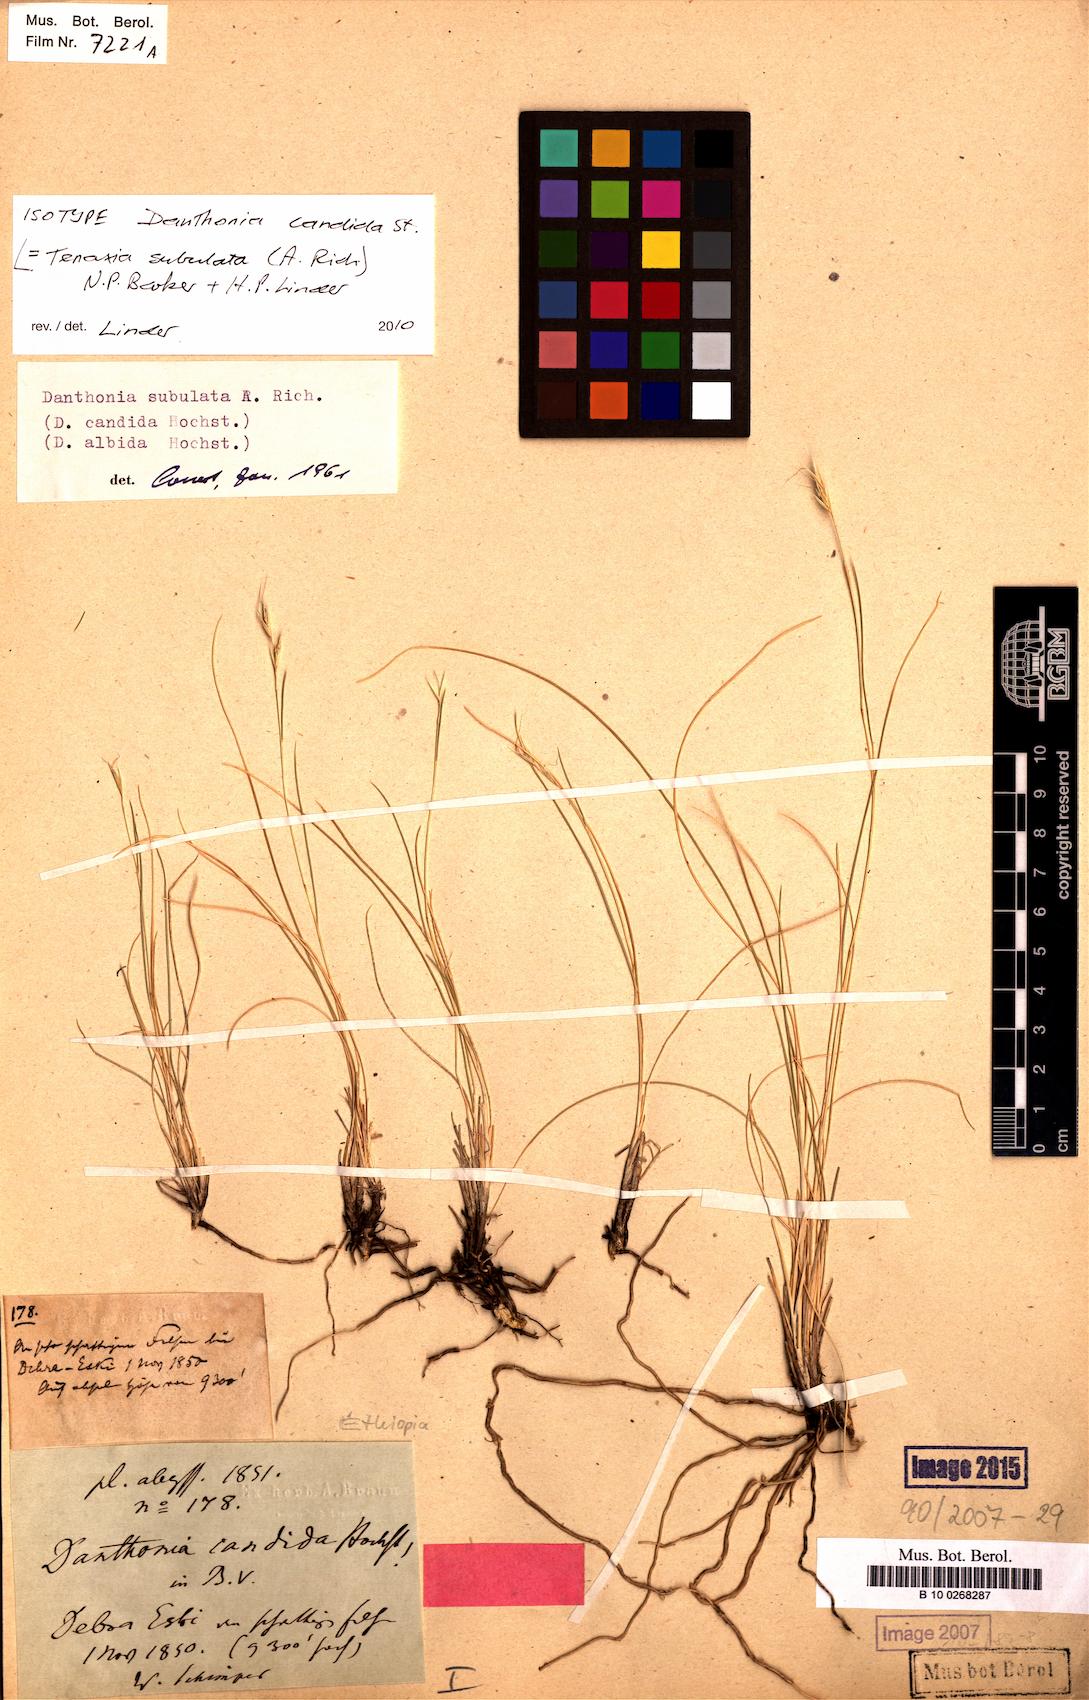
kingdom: Plantae
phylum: Tracheophyta
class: Liliopsida
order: Poales
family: Poaceae
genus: Tenaxia
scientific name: Tenaxia subulata
